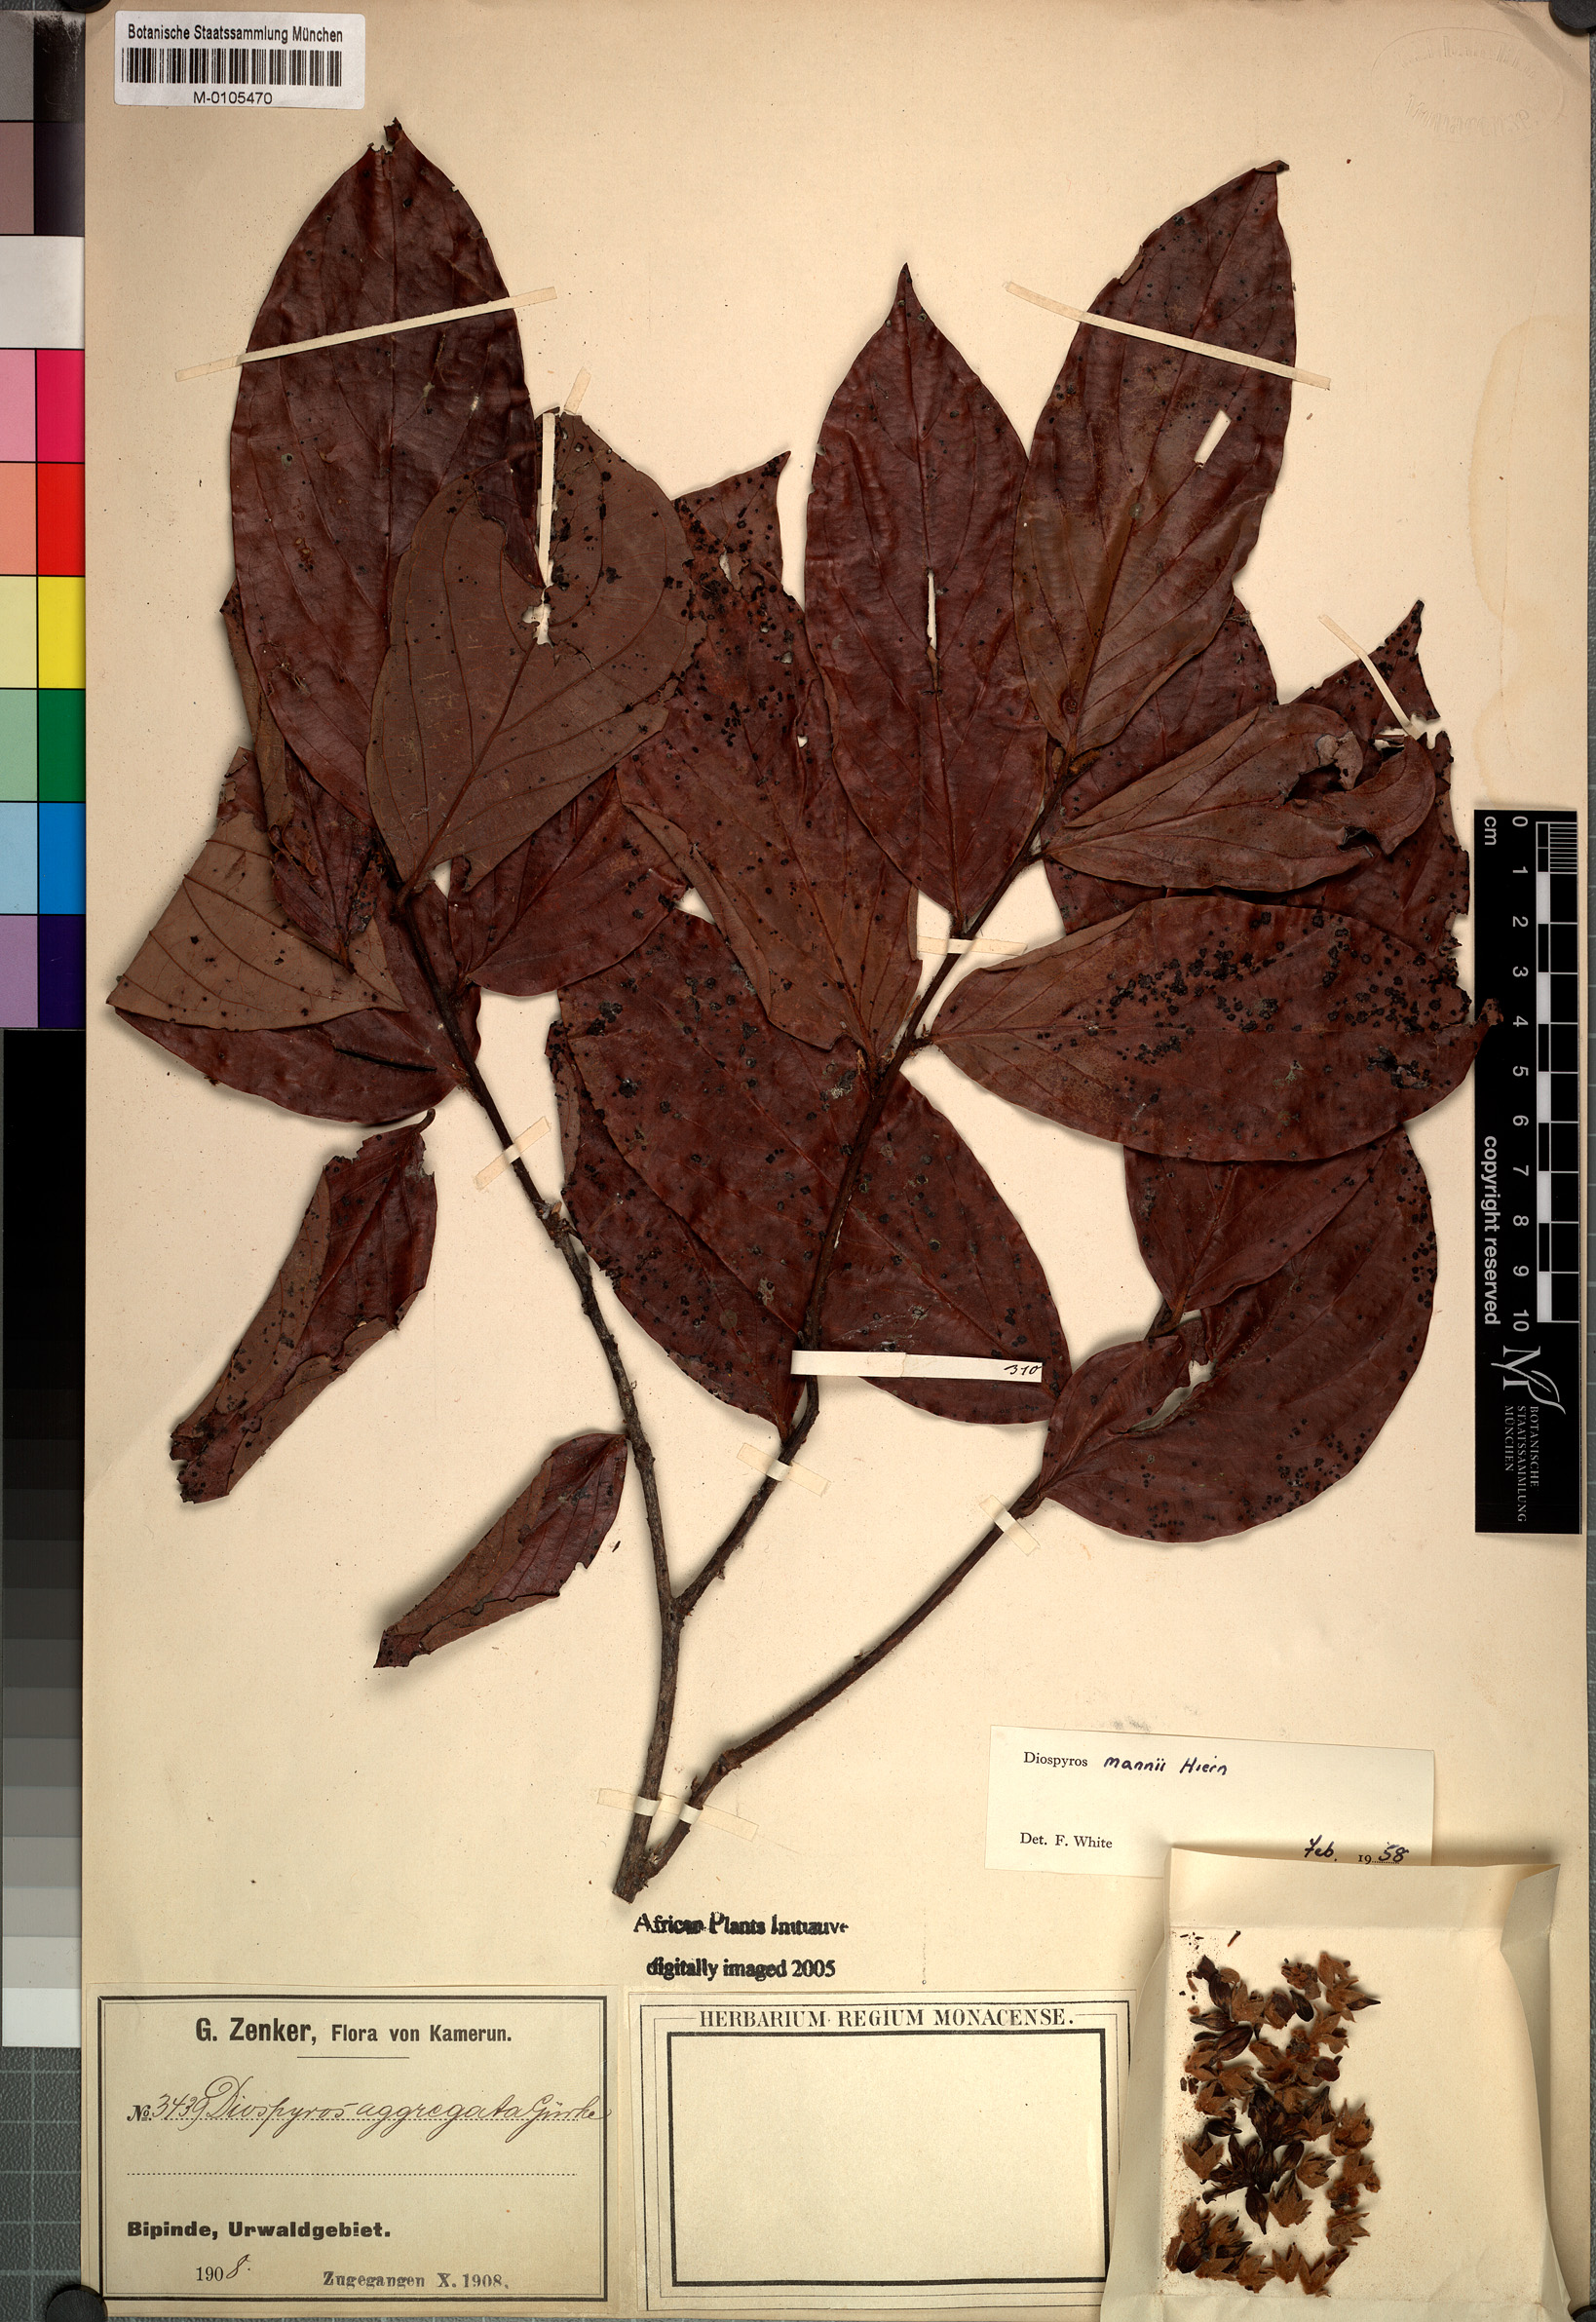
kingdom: Plantae
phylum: Tracheophyta
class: Magnoliopsida
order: Ericales
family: Ebenaceae
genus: Diospyros
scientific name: Diospyros mannii
